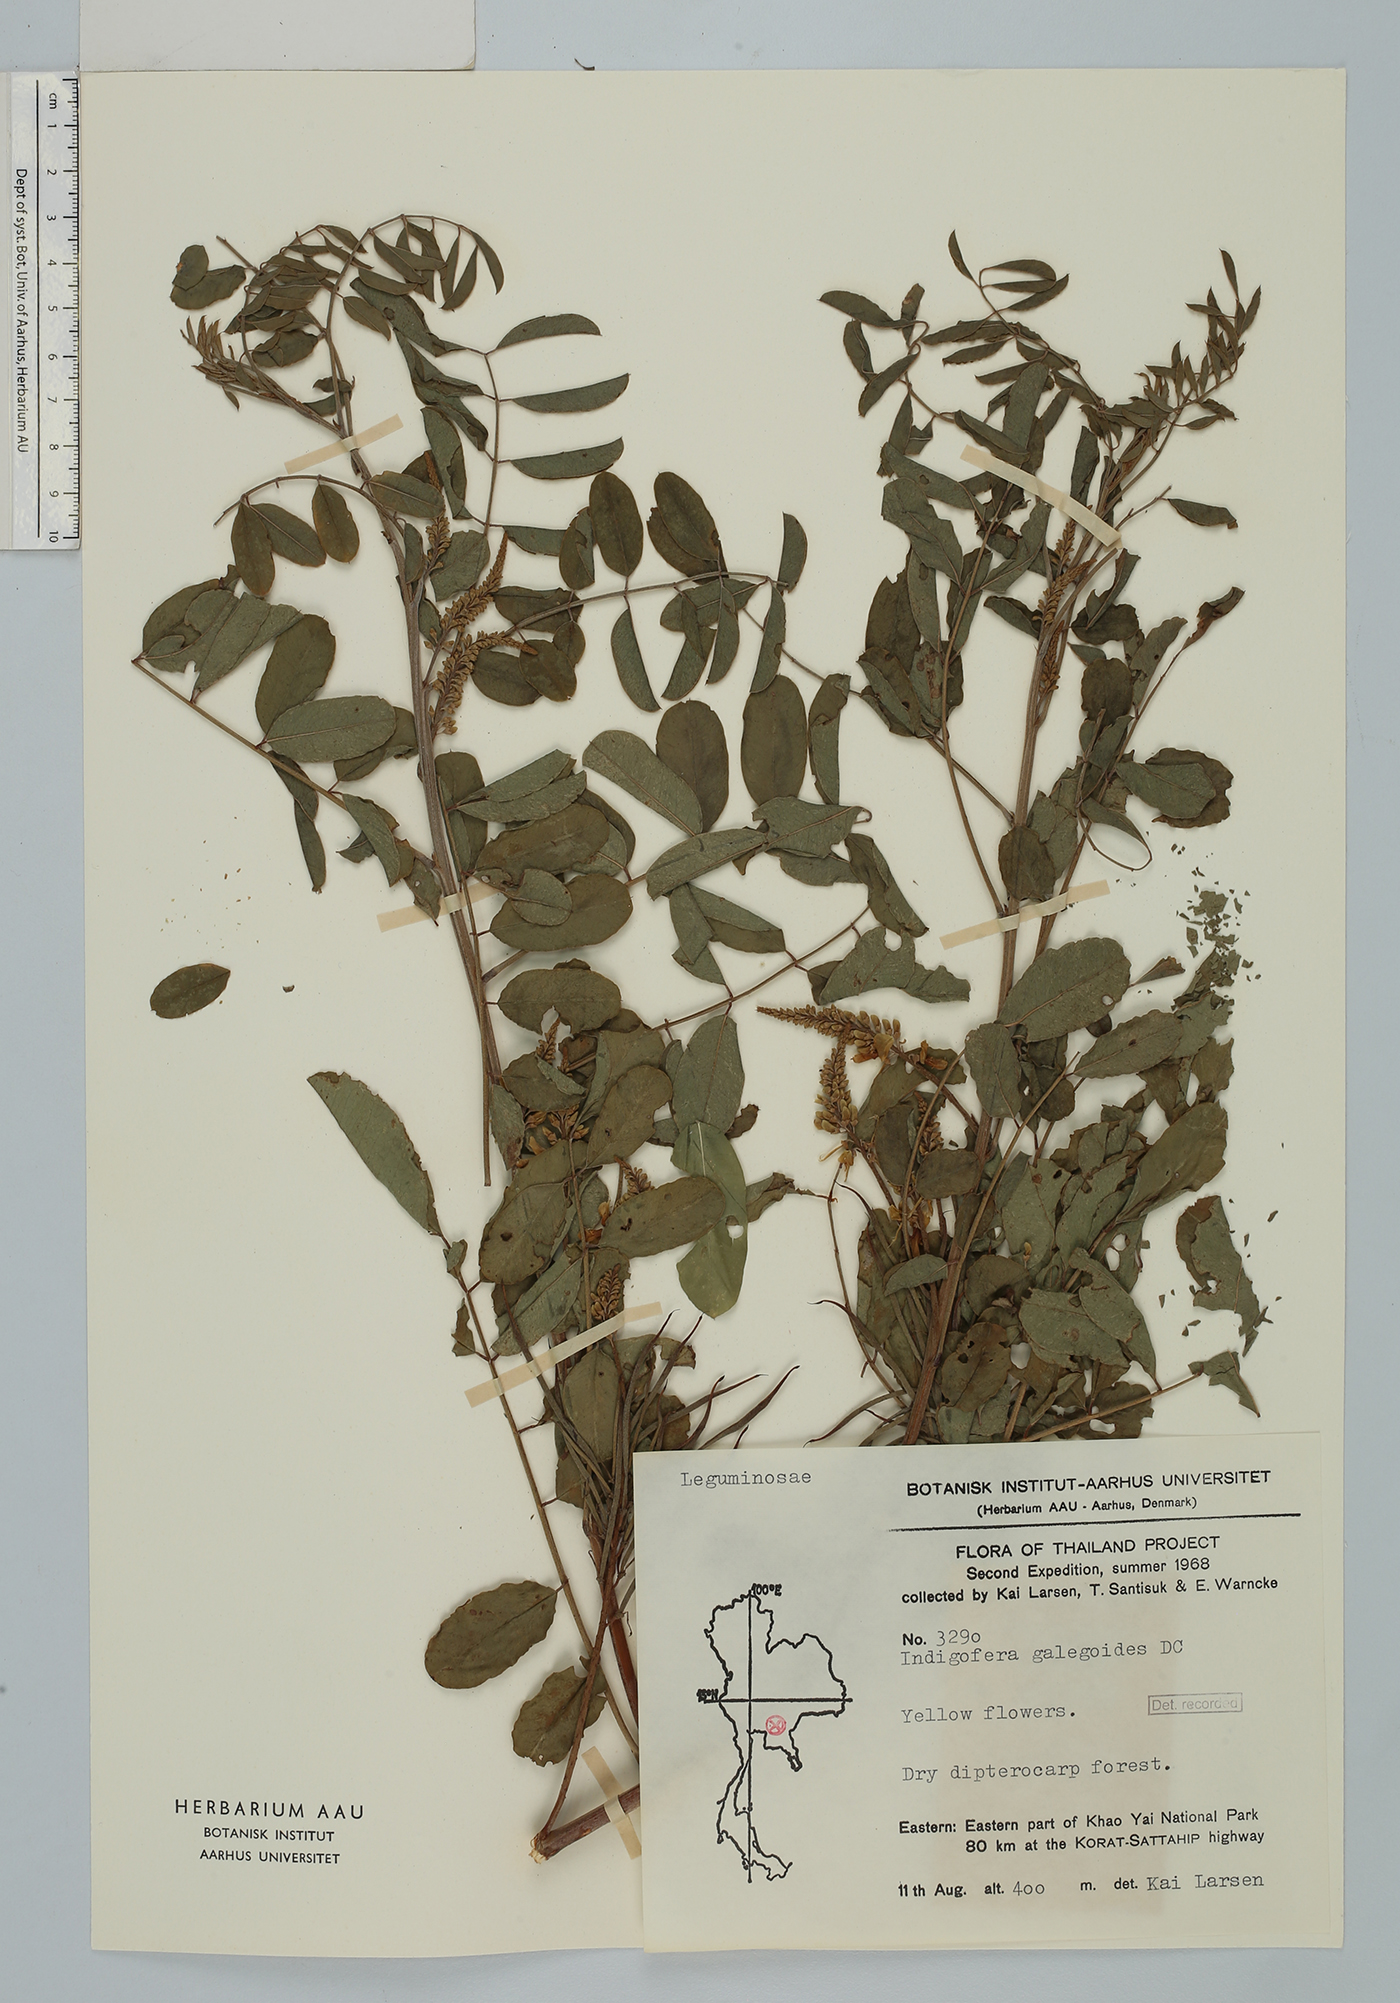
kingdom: Plantae
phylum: Tracheophyta
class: Magnoliopsida
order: Fabales
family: Fabaceae
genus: Indigofera
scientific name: Indigofera galegoides
